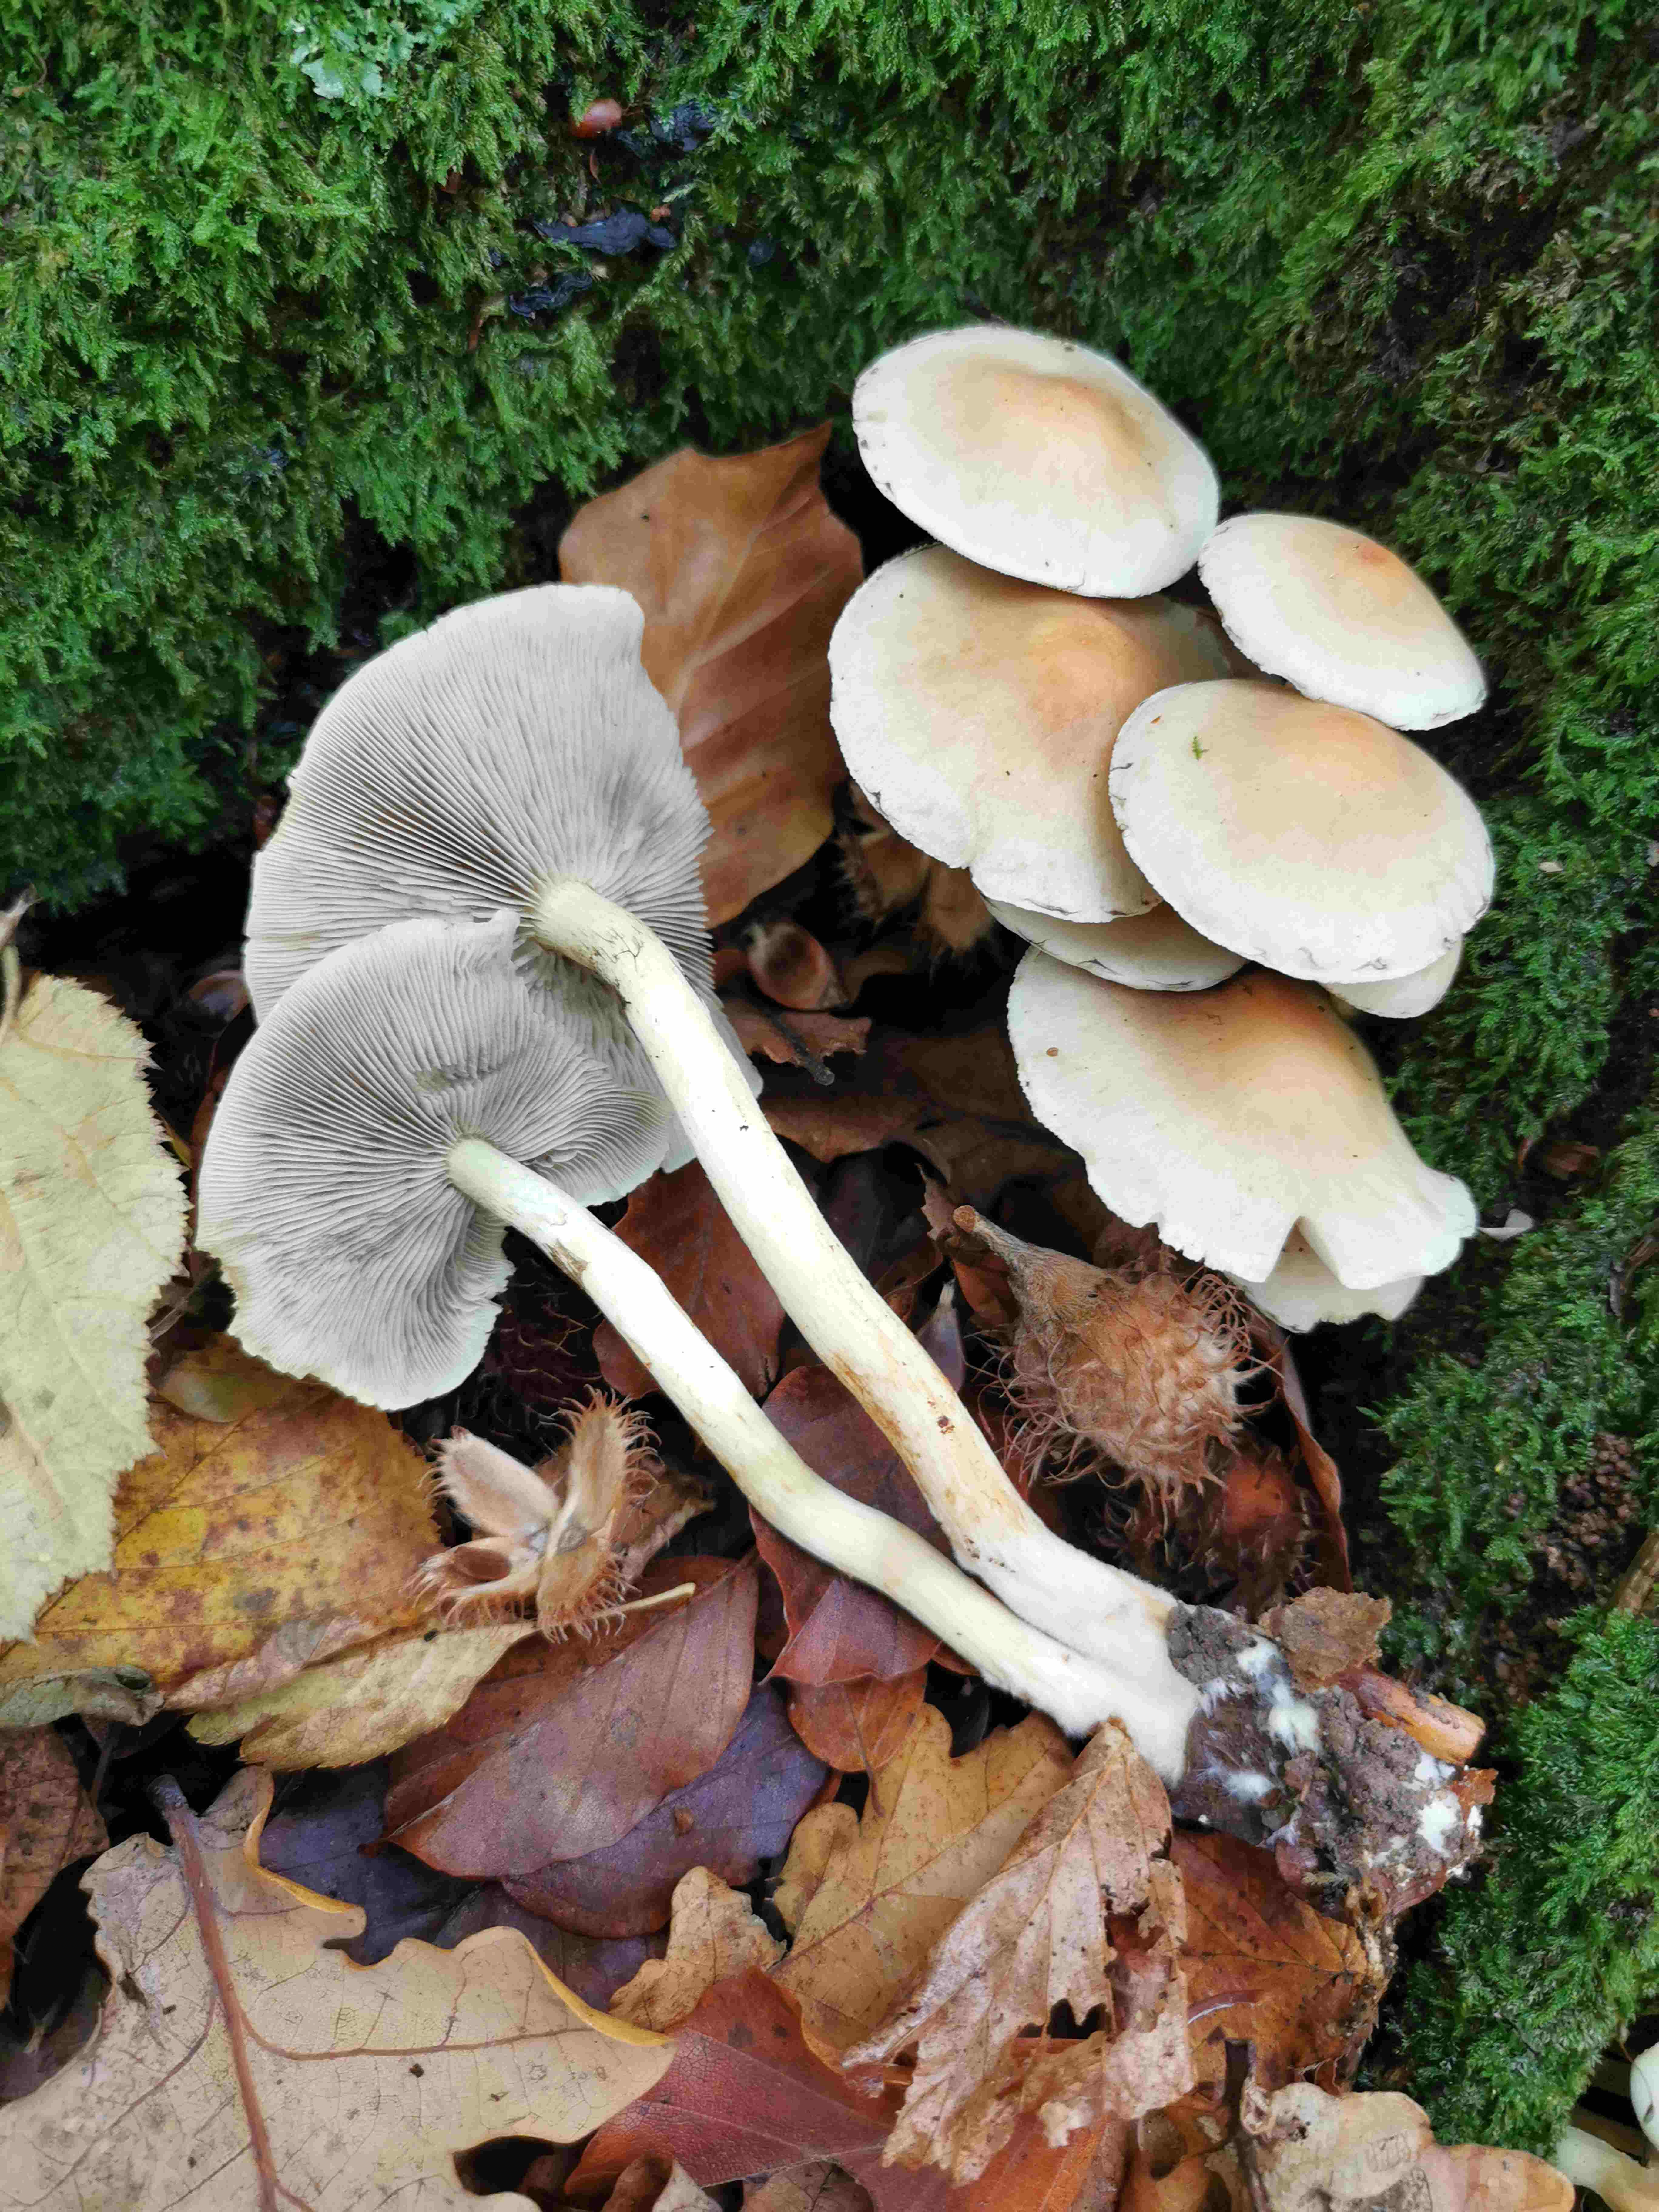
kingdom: Fungi
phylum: Basidiomycota
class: Agaricomycetes
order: Agaricales
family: Strophariaceae
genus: Hypholoma
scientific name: Hypholoma fasciculare
